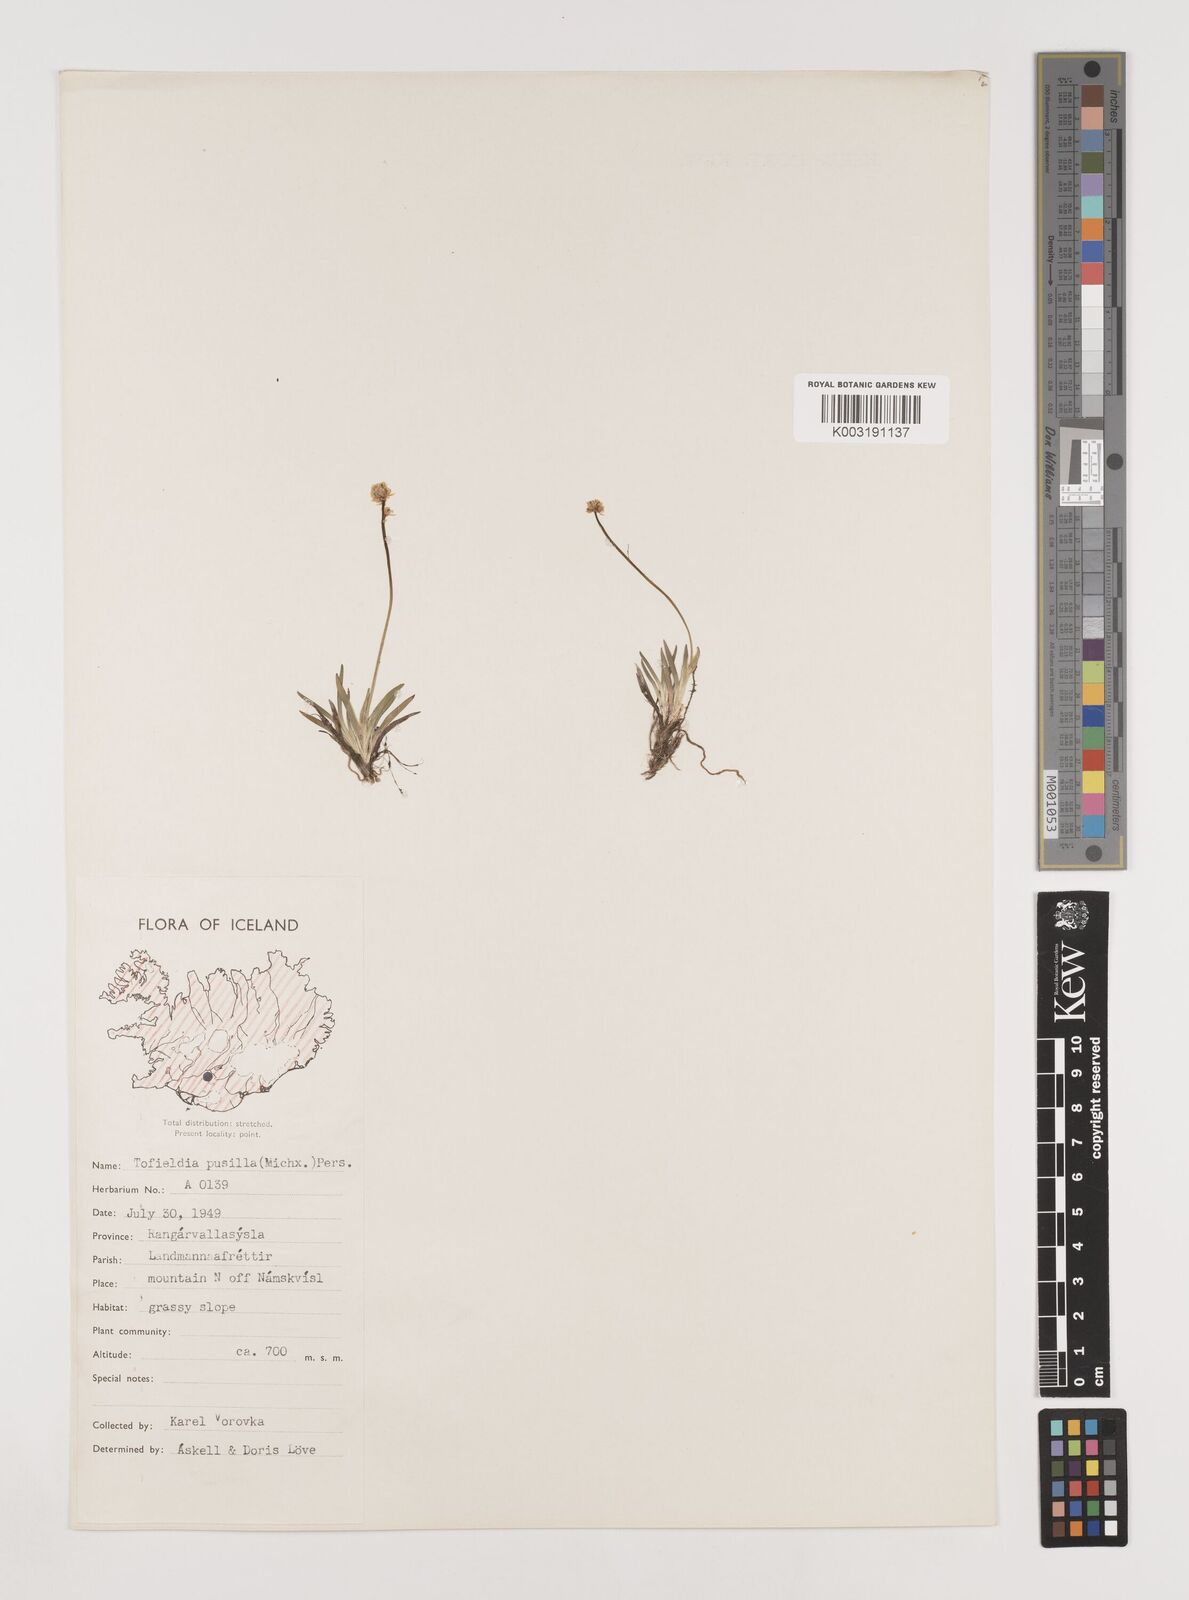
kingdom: Plantae
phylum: Tracheophyta
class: Liliopsida
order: Alismatales
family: Tofieldiaceae
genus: Tofieldia
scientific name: Tofieldia pusilla
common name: Scottish false asphodel
